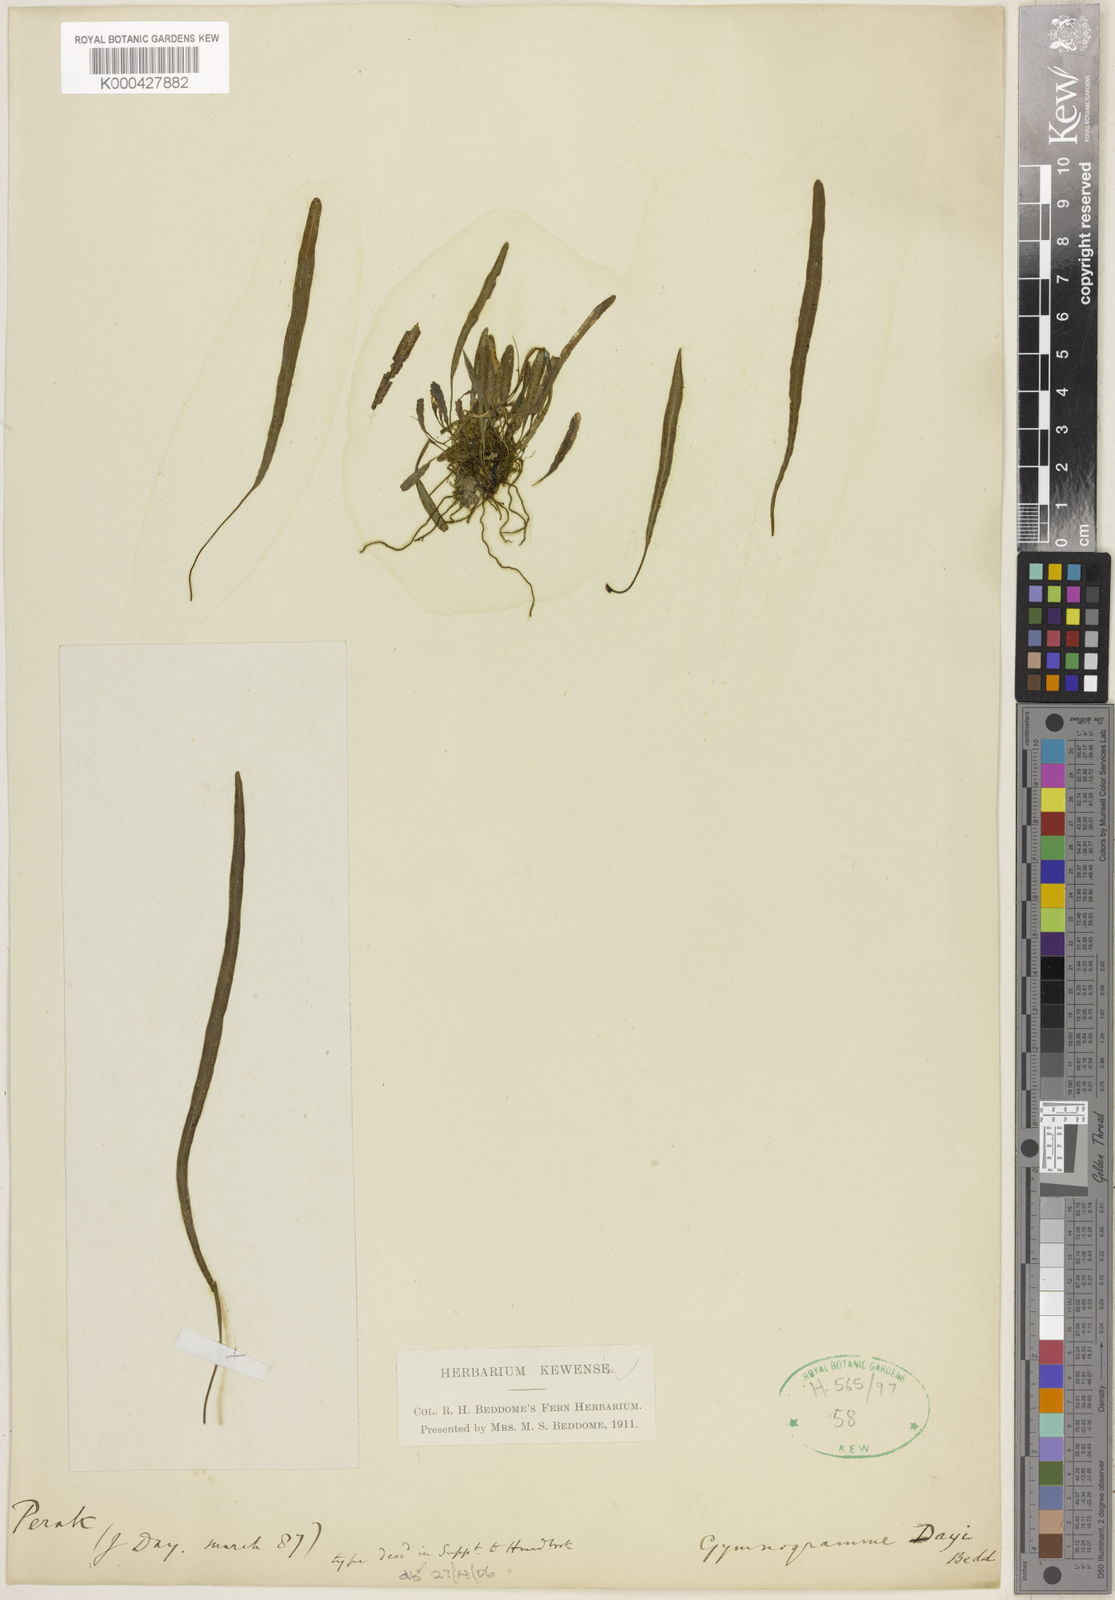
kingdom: Plantae
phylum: Tracheophyta
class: Polypodiopsida
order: Polypodiales
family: Pteridaceae
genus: Syngramma
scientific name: Syngramma dayi
